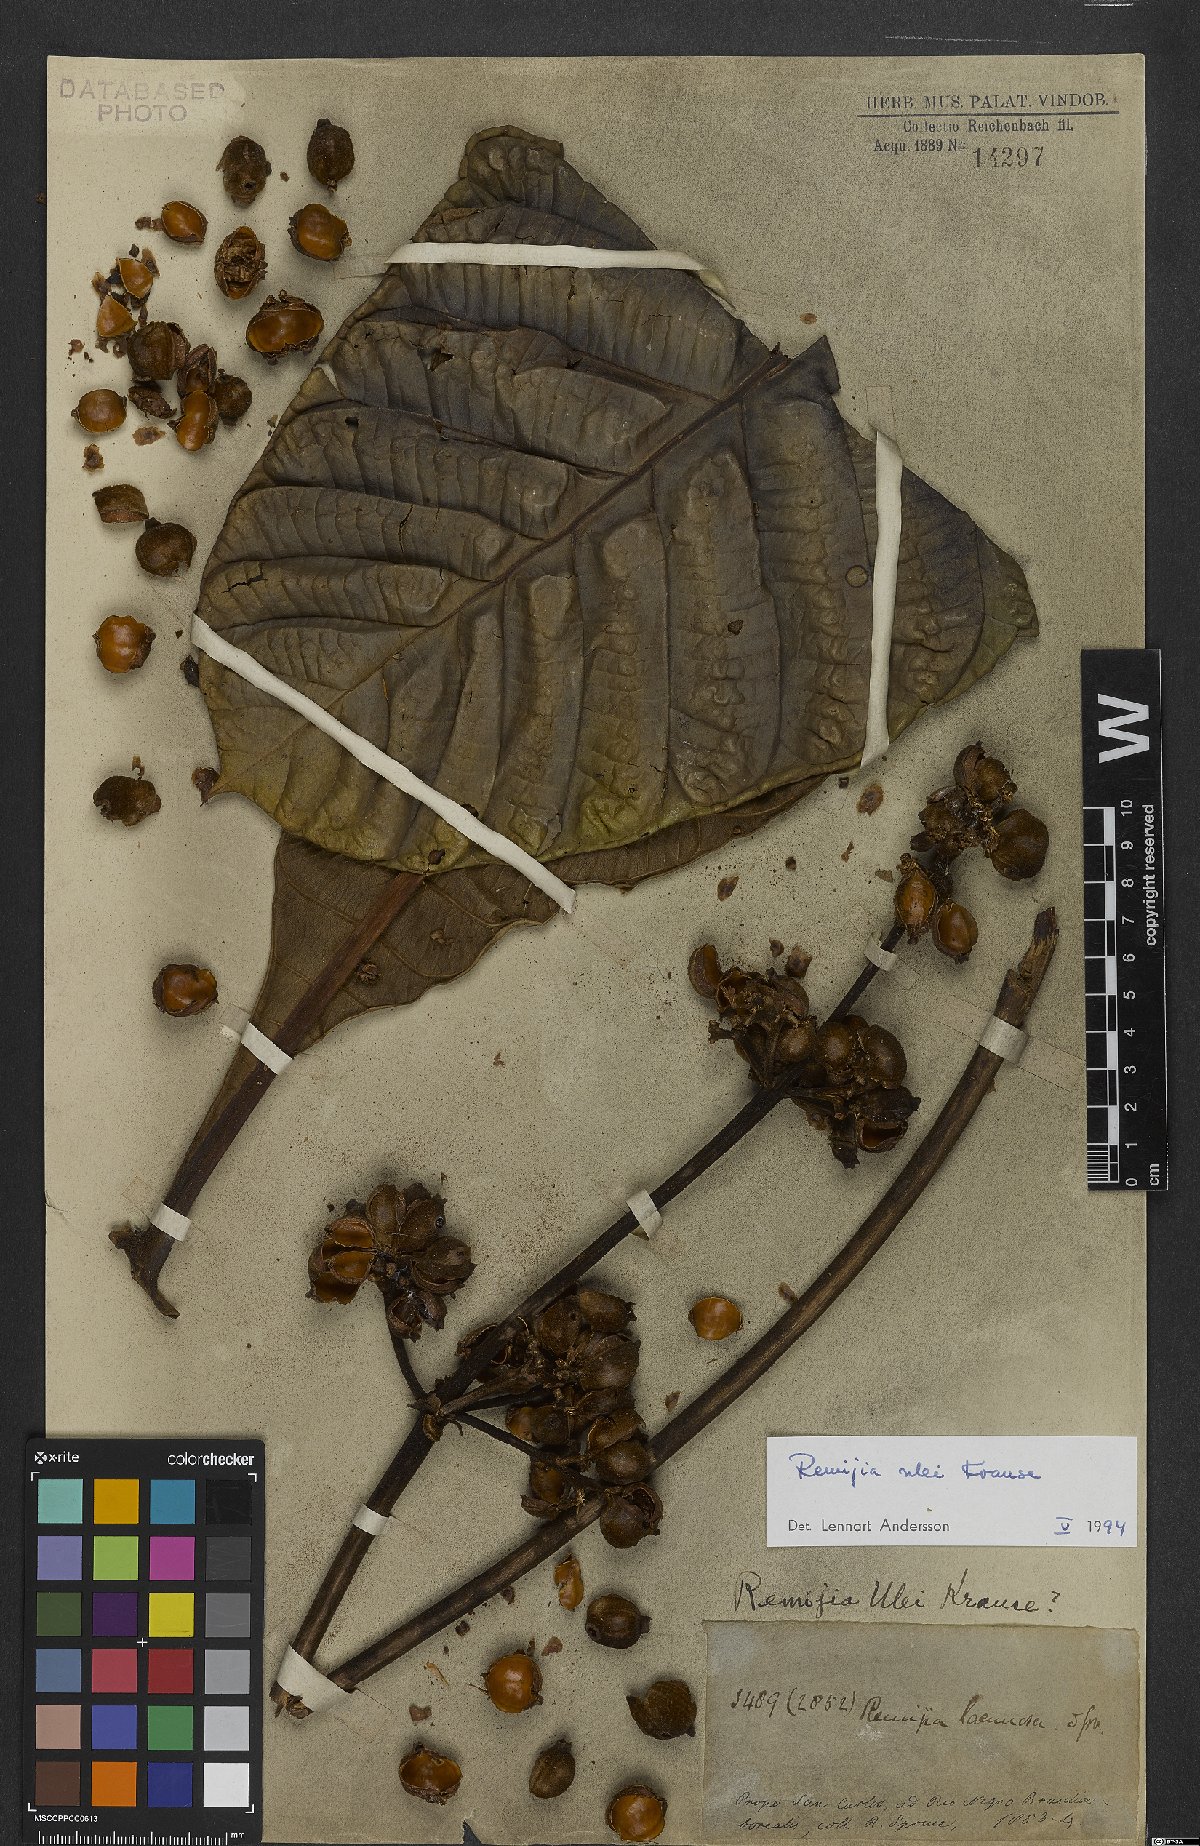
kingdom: Plantae
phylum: Tracheophyta
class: Magnoliopsida
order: Gentianales
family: Rubiaceae
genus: Remijia
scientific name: Remijia ulei
